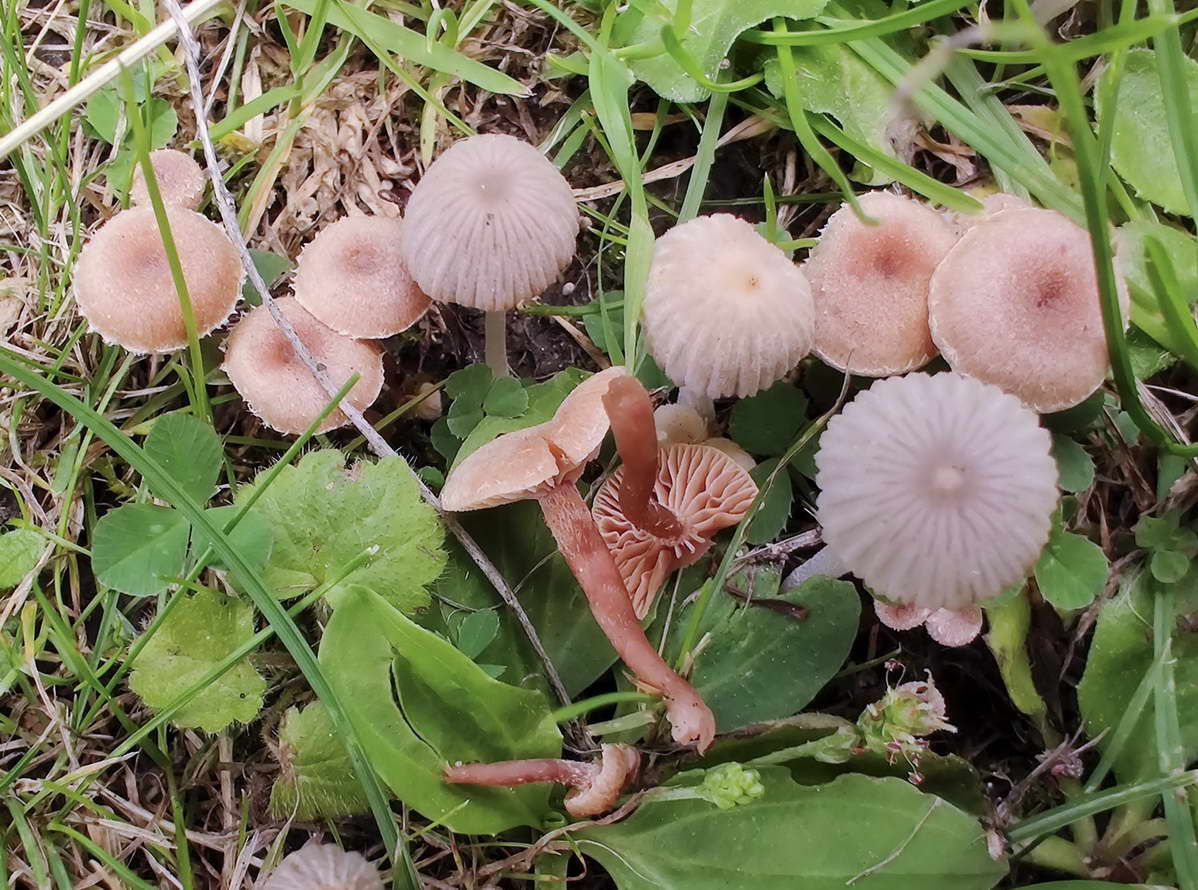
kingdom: Fungi
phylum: Basidiomycota
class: Agaricomycetes
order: Agaricales
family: Tubariaceae
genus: Tubaria
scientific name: Tubaria conspersa
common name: bleg fnughat
